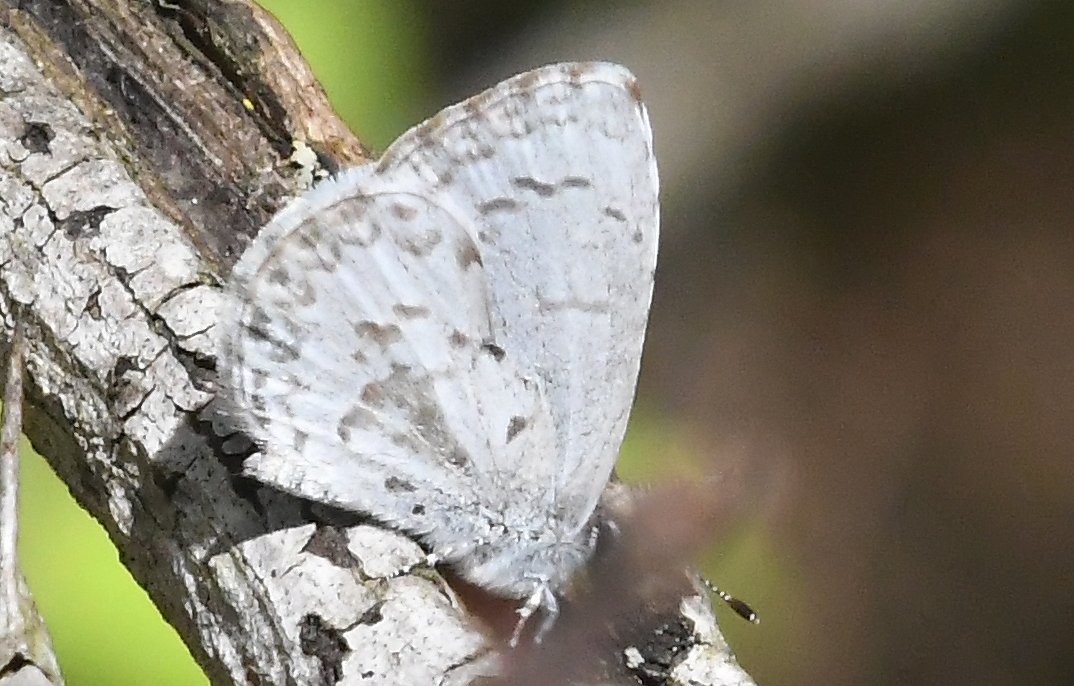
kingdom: Animalia
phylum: Arthropoda
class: Insecta
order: Lepidoptera
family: Lycaenidae
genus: Celastrina
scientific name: Celastrina lucia
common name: Northern Spring Azure
